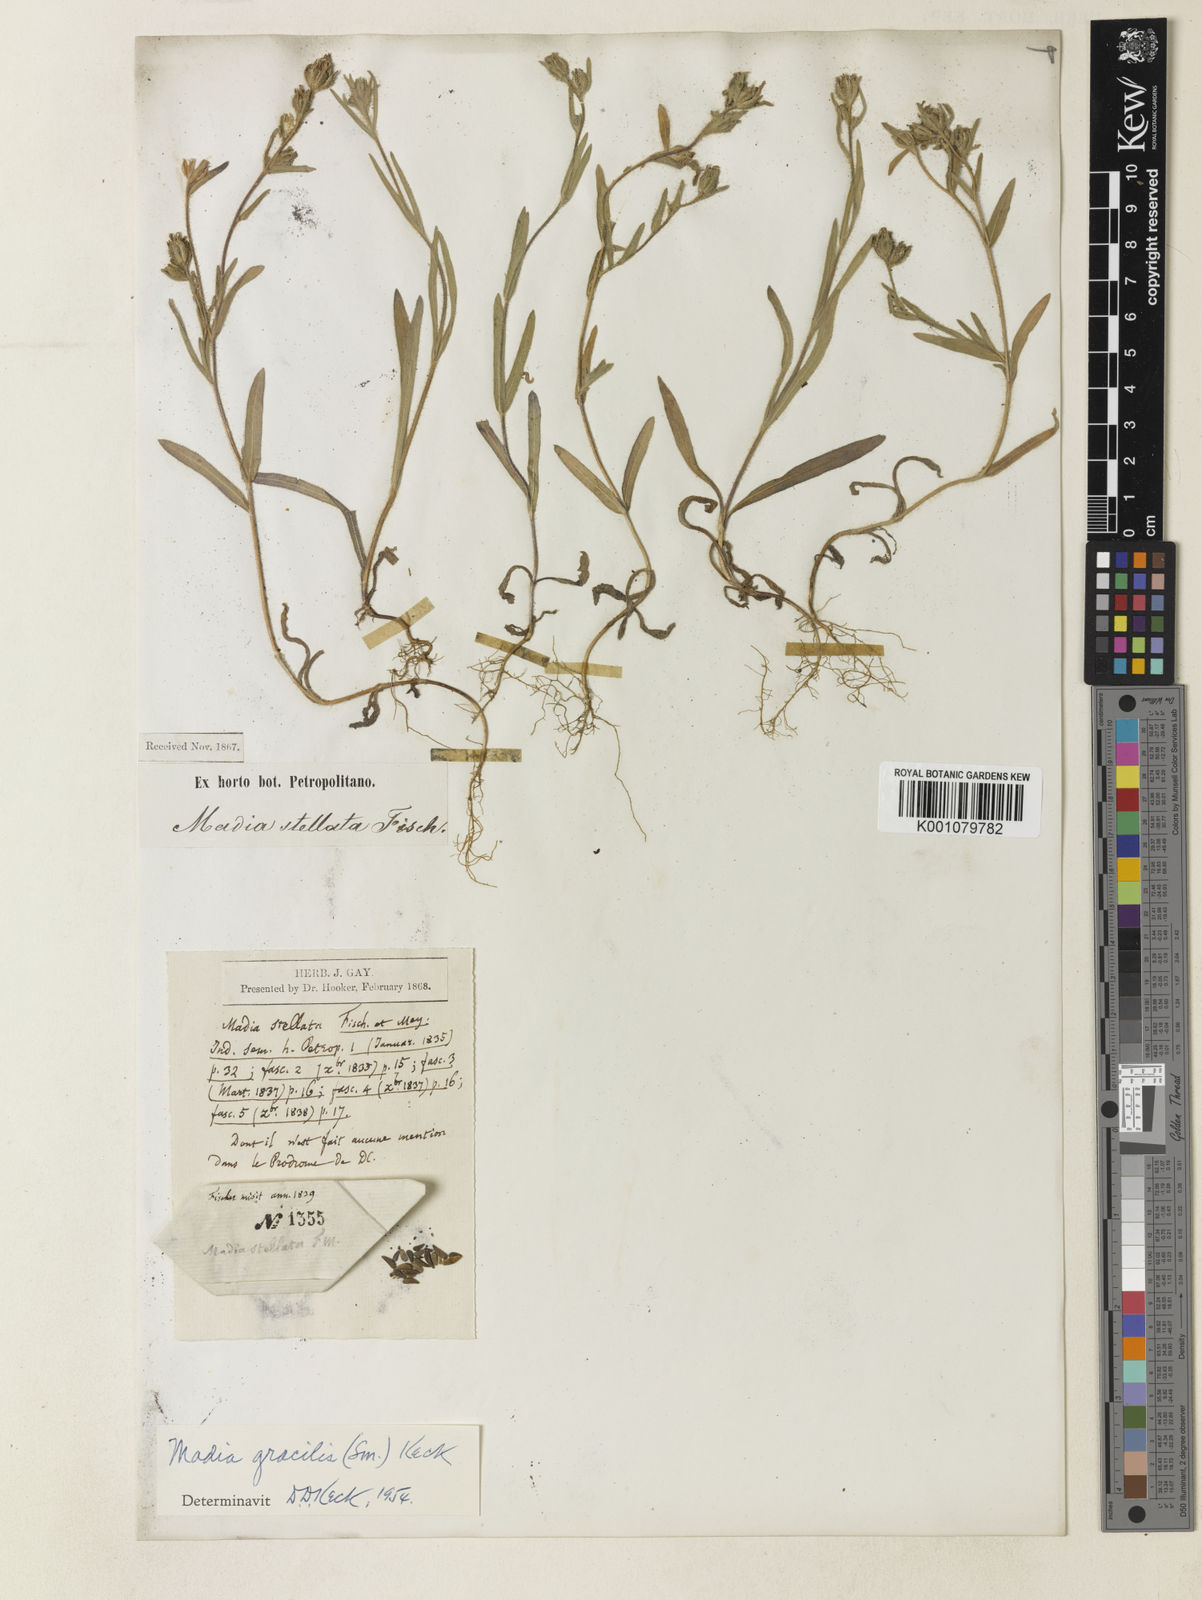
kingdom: Plantae
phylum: Tracheophyta
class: Magnoliopsida
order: Asterales
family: Asteraceae
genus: Madia
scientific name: Madia sativa
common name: Coast tarweed
